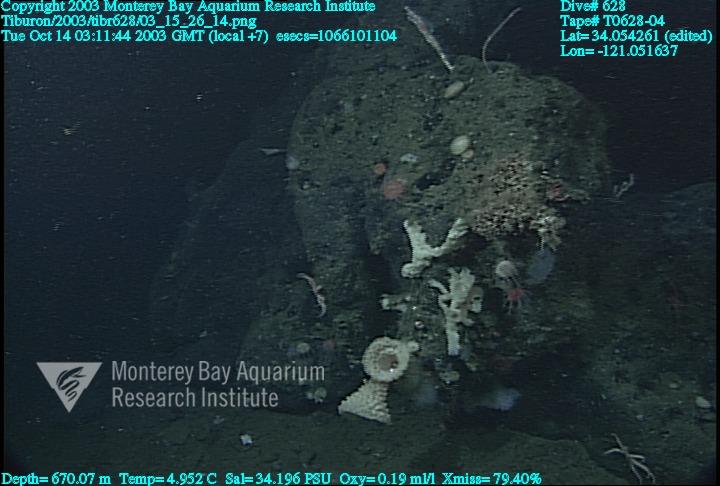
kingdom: Animalia
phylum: Porifera
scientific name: Porifera
